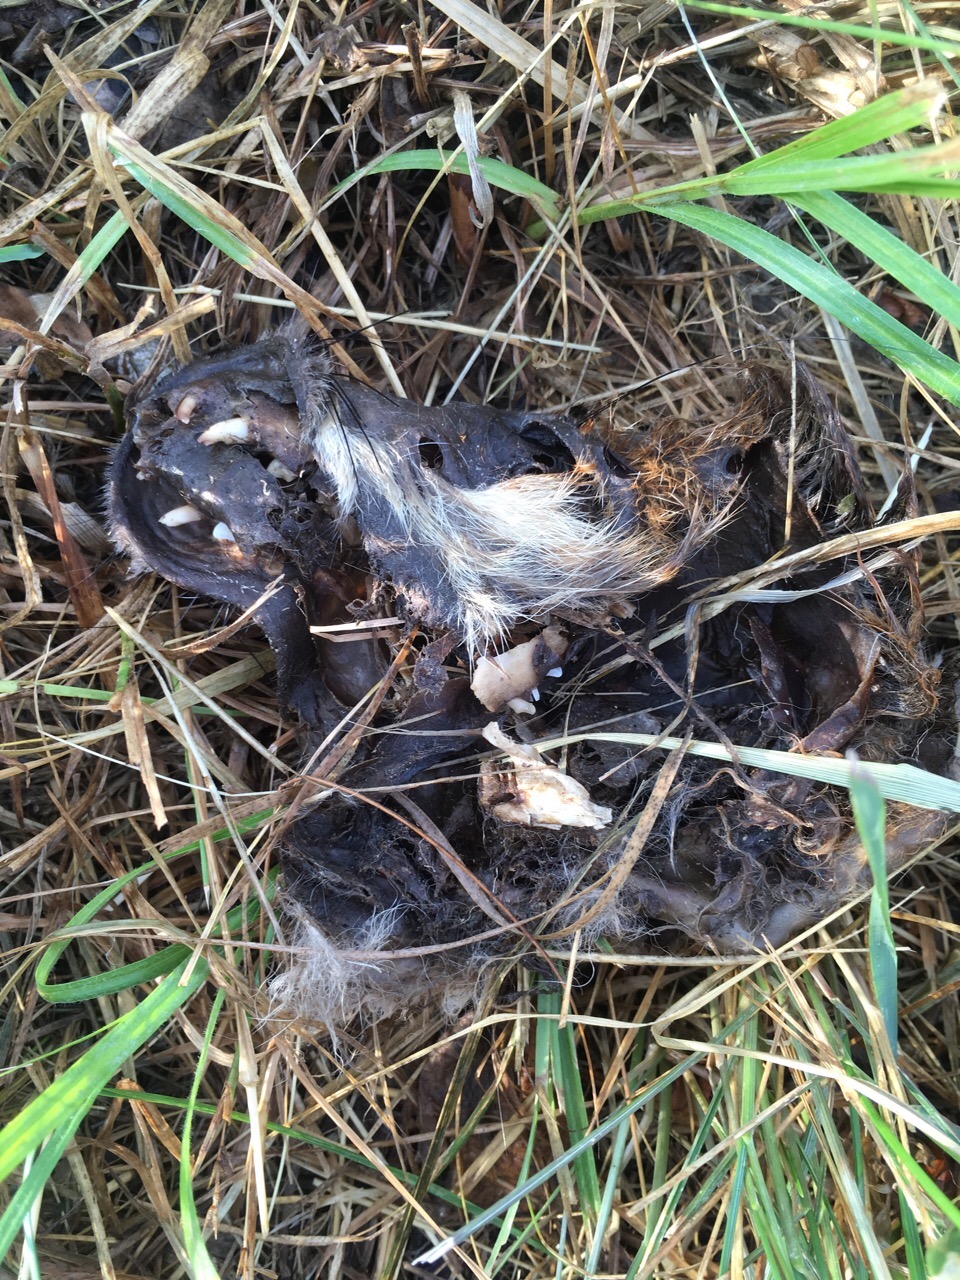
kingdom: Animalia
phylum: Chordata
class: Mammalia
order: Carnivora
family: Canidae
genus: Vulpes
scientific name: Vulpes vulpes
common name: Red fox
